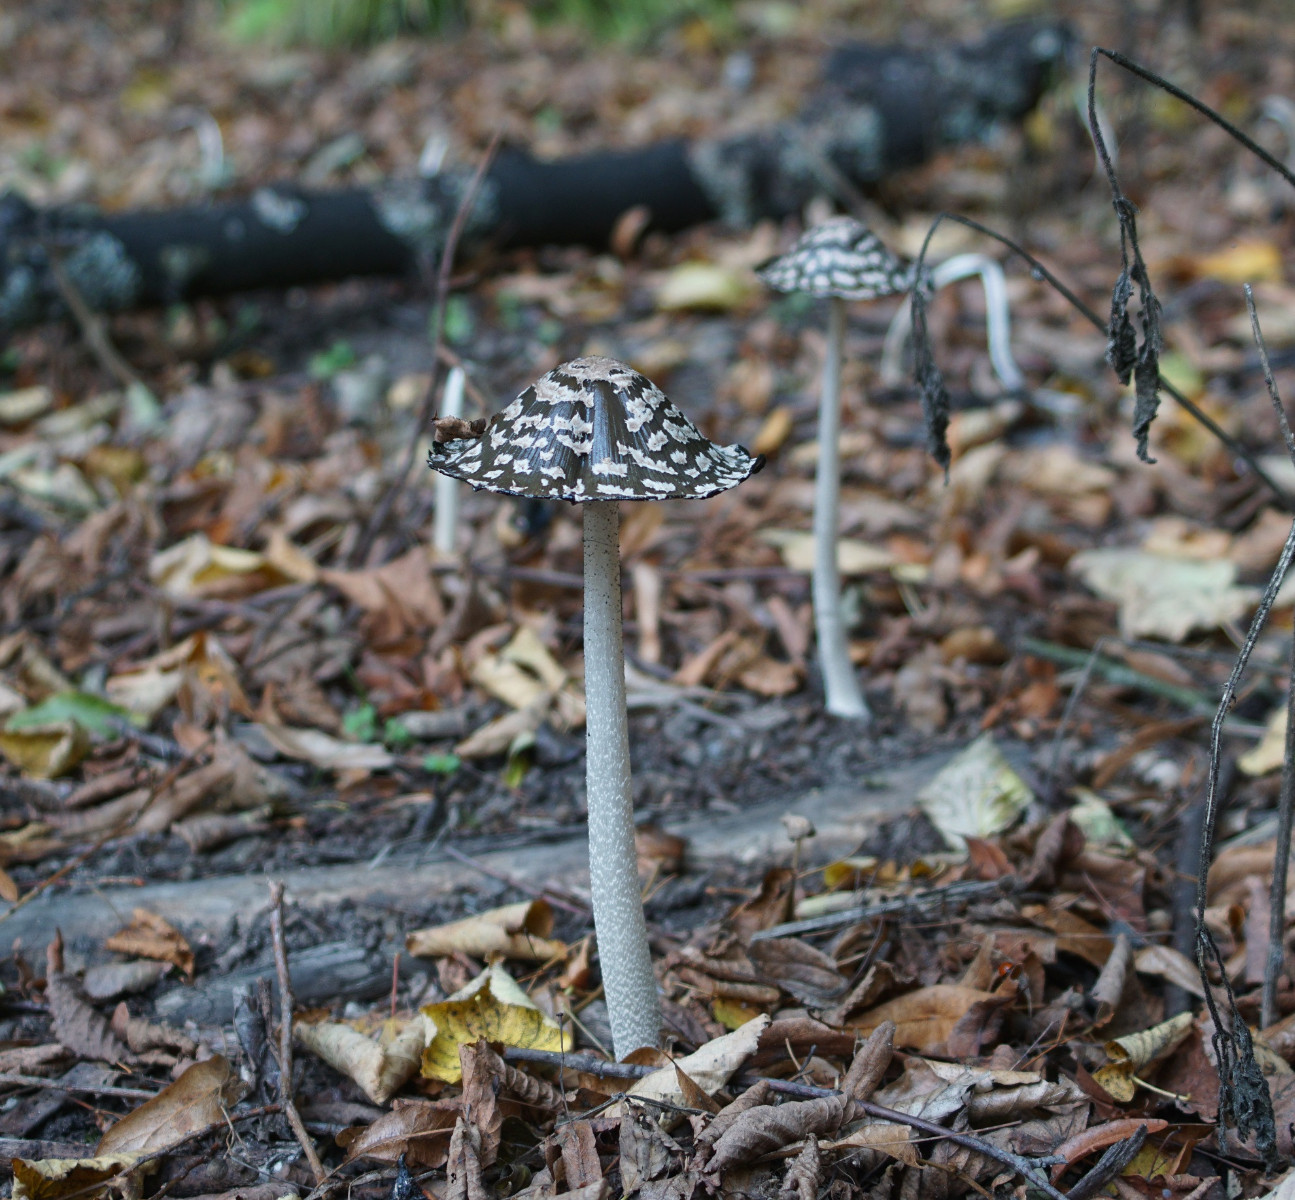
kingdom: Fungi
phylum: Basidiomycota
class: Agaricomycetes
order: Agaricales
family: Psathyrellaceae
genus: Coprinopsis
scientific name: Coprinopsis picacea
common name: skade-blækhat
